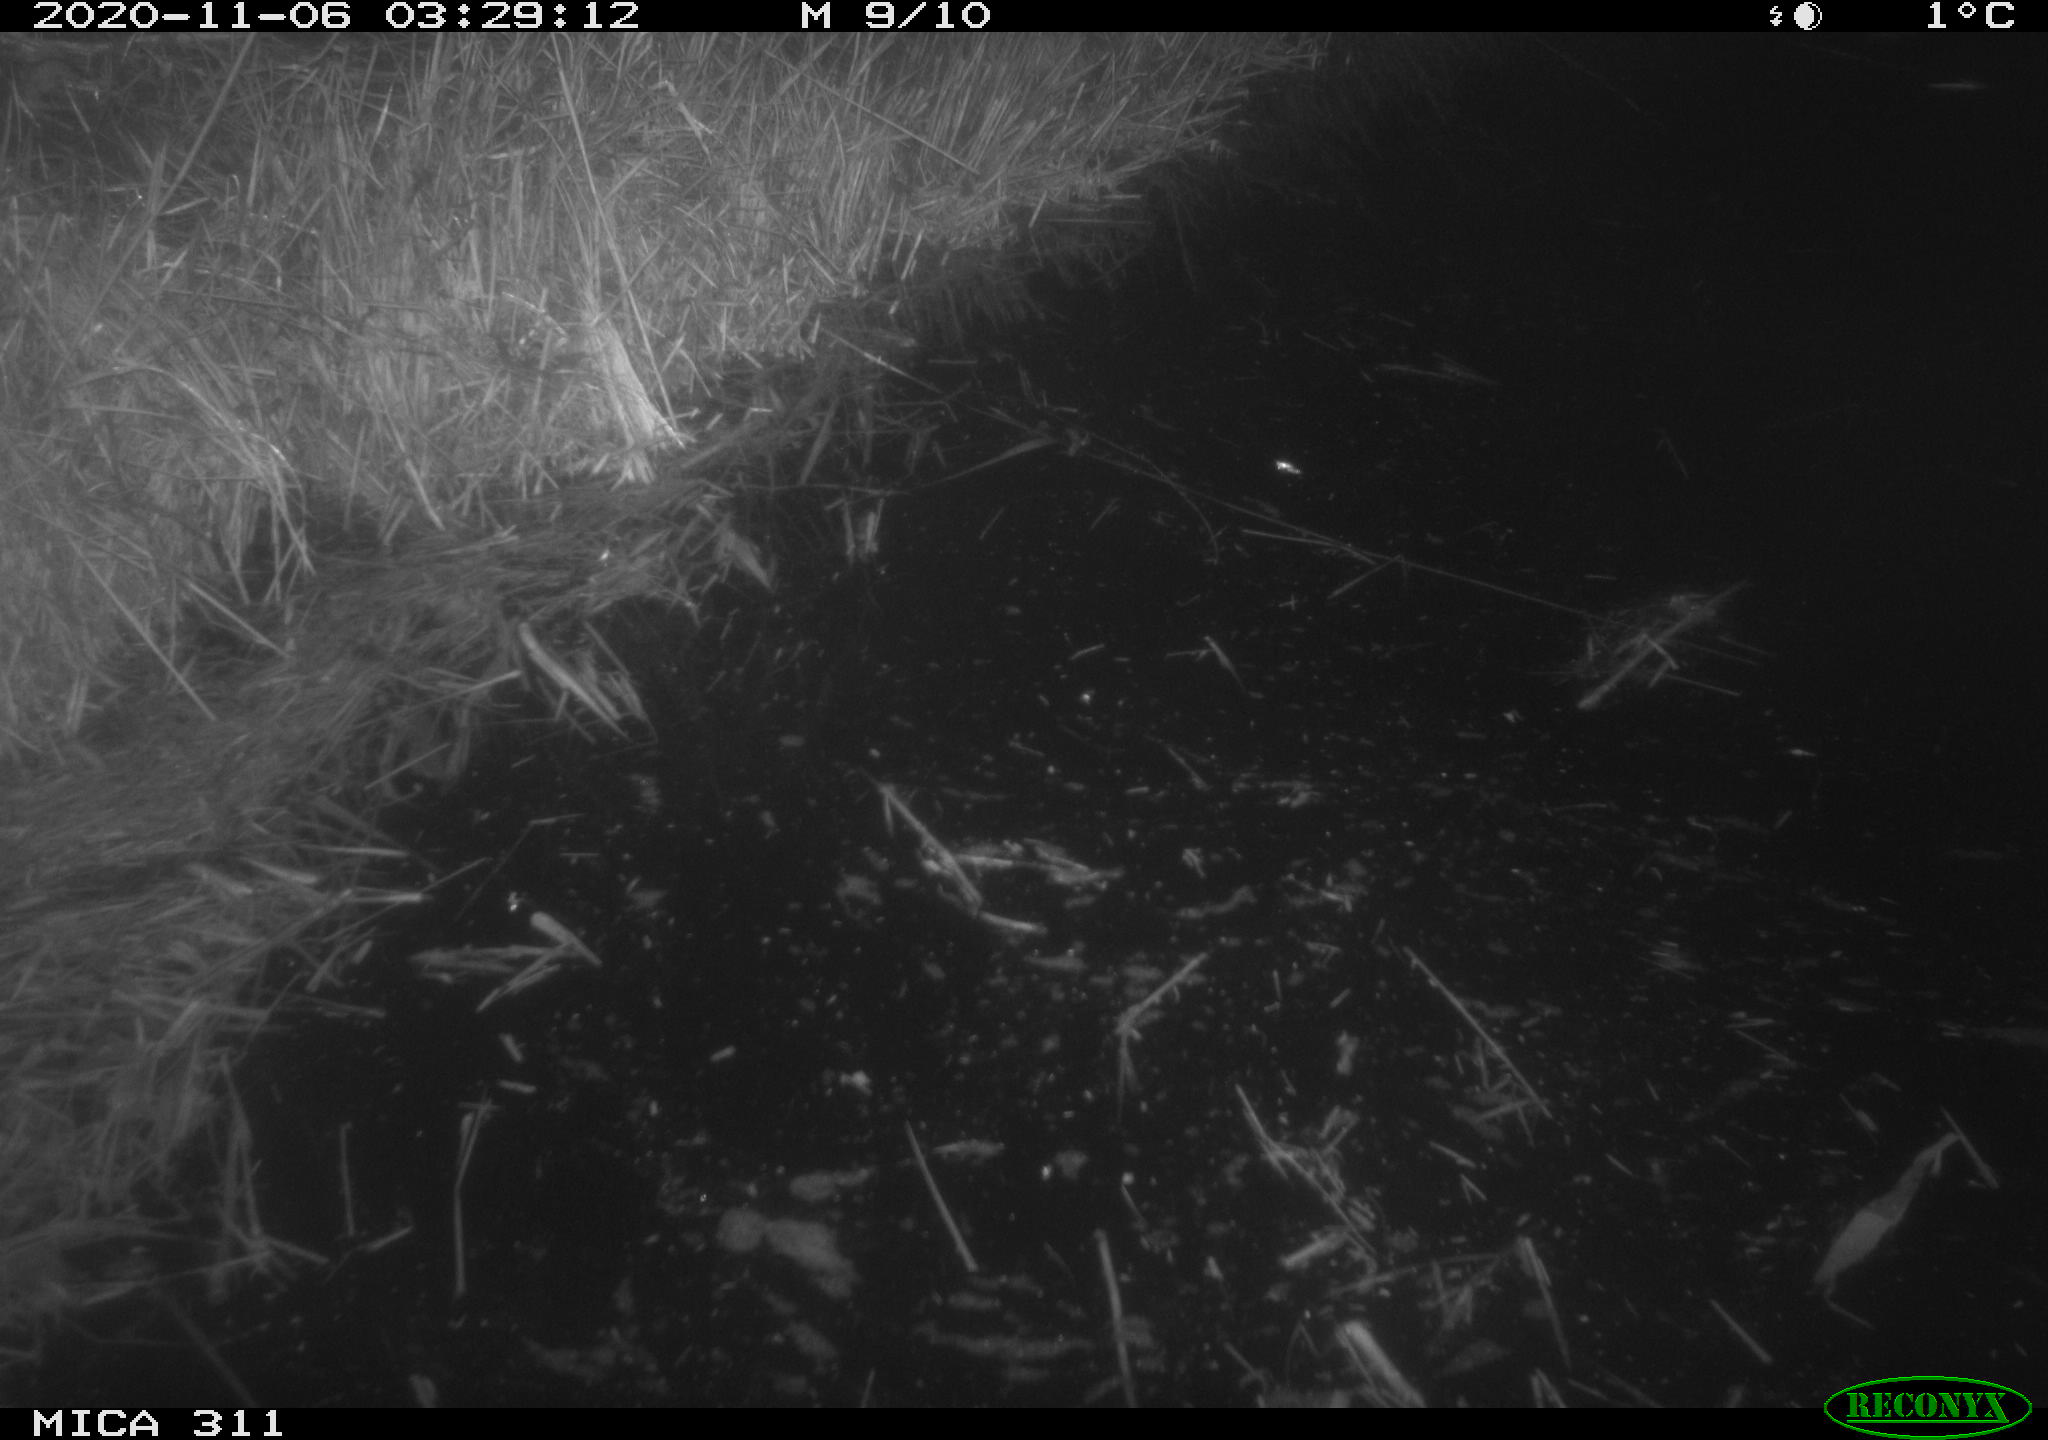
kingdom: Animalia
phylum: Chordata
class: Mammalia
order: Rodentia
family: Muridae
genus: Rattus
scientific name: Rattus norvegicus
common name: Brown rat
